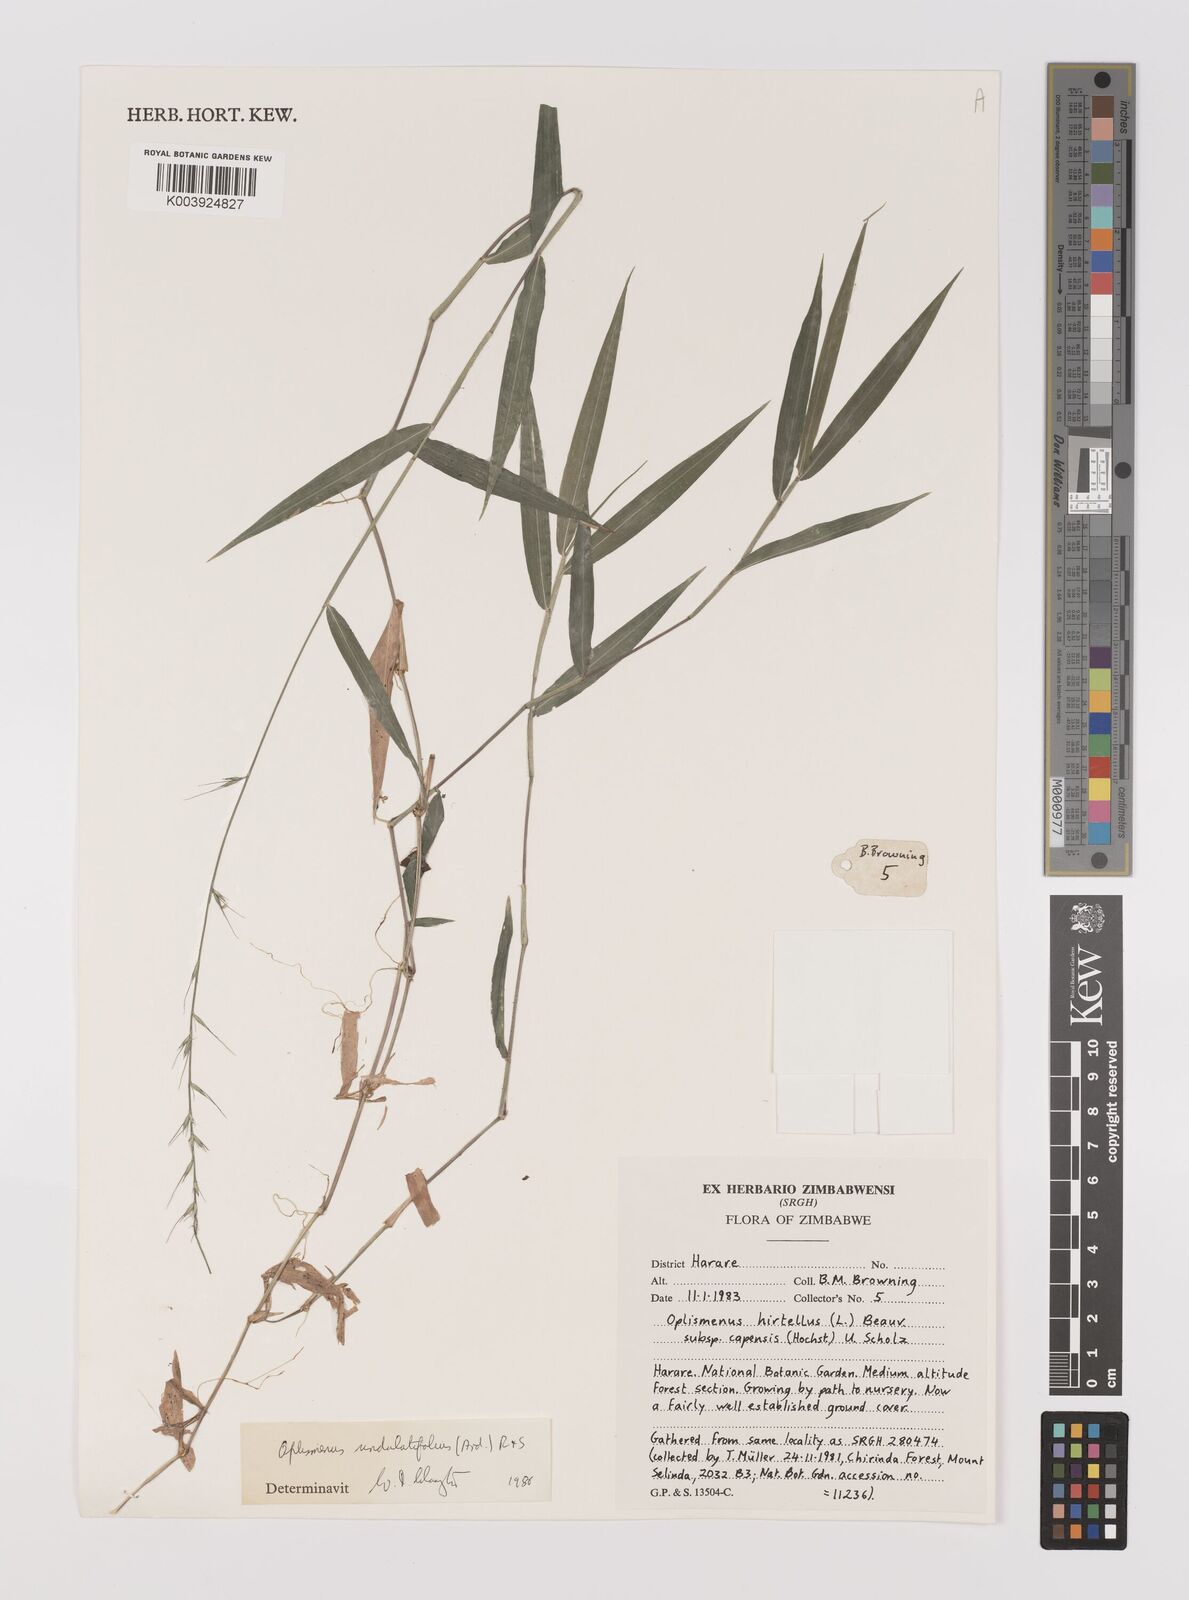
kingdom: Plantae
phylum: Tracheophyta
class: Liliopsida
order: Poales
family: Poaceae
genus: Oplismenus
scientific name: Oplismenus undulatifolius
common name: Wavyleaf basketgrass
